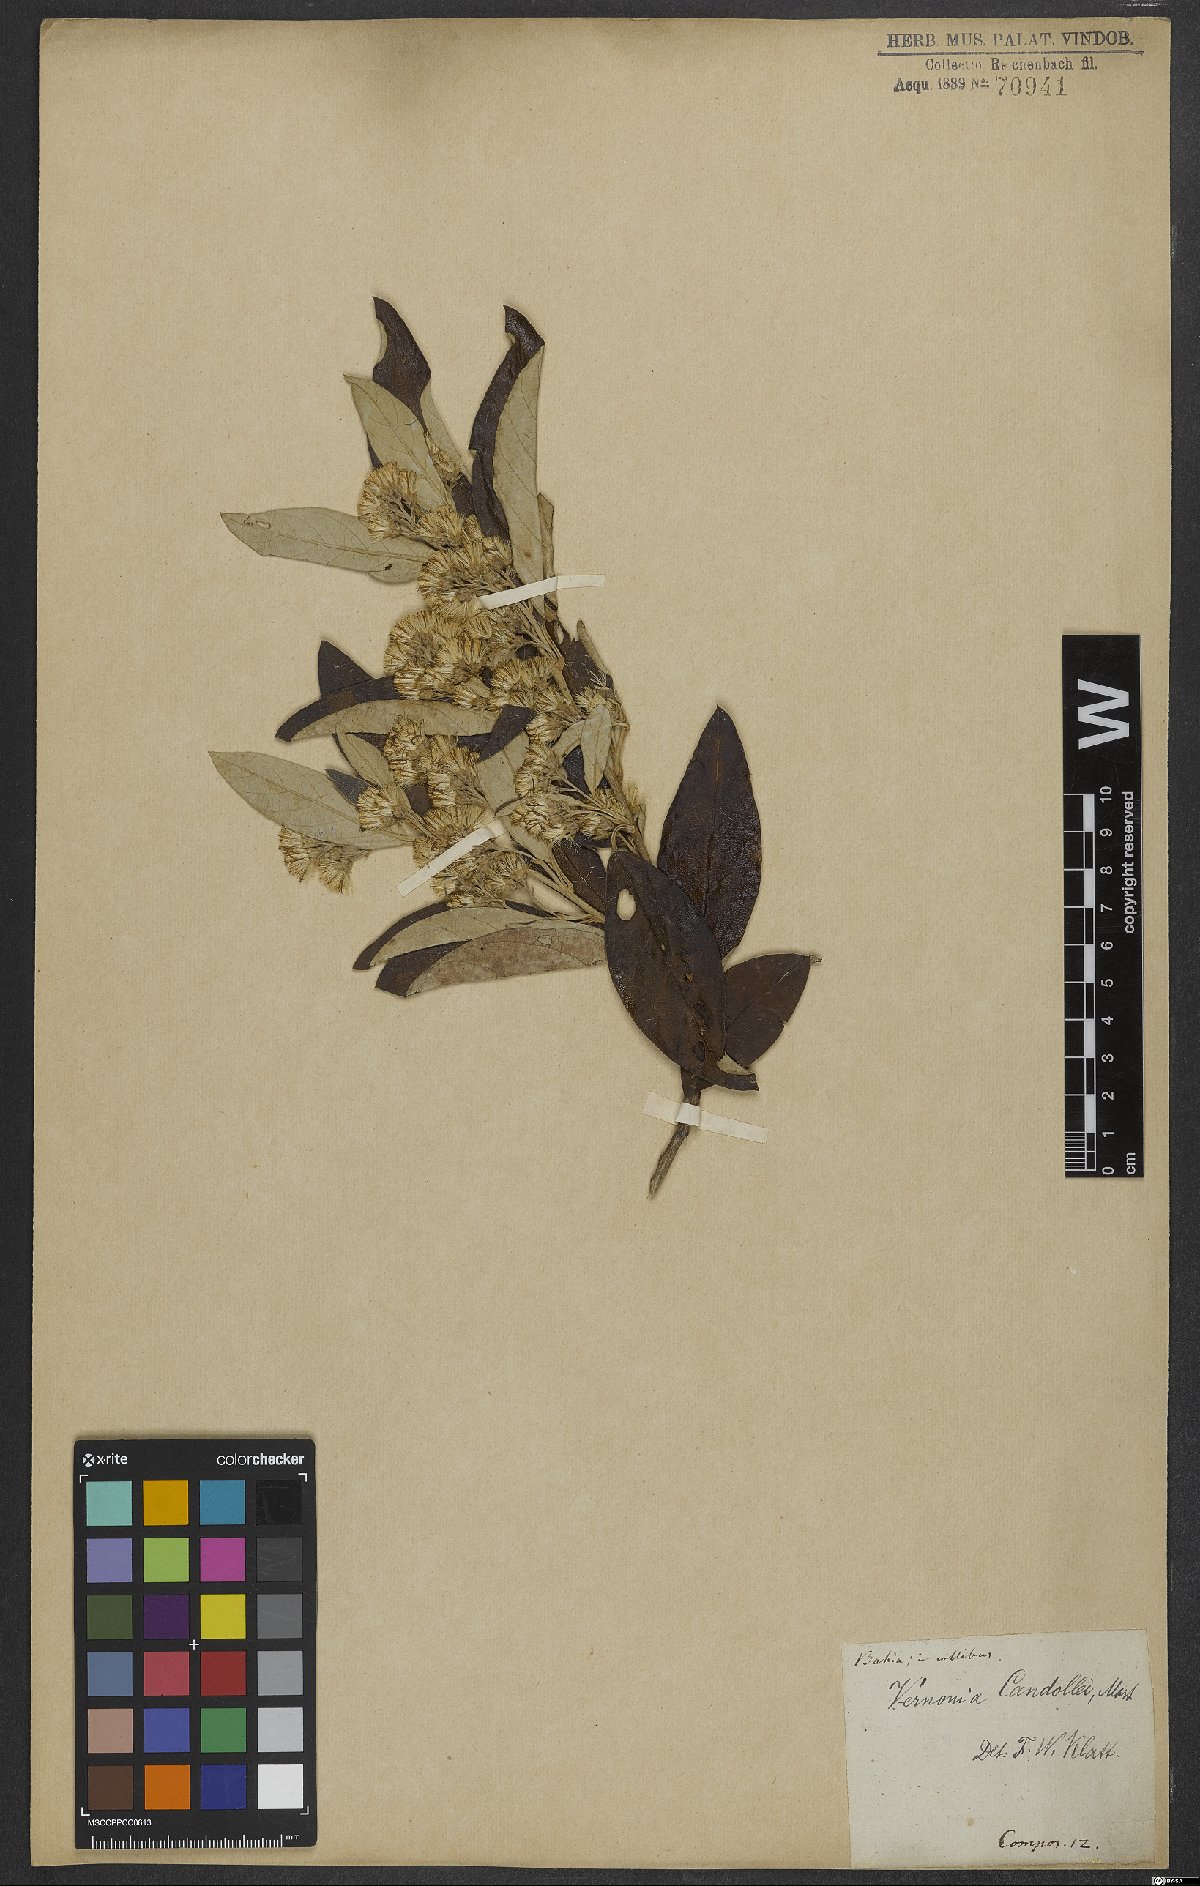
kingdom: Plantae
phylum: Tracheophyta
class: Magnoliopsida
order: Asterales
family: Asteraceae
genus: Bechium
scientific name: Bechium rubricaule
